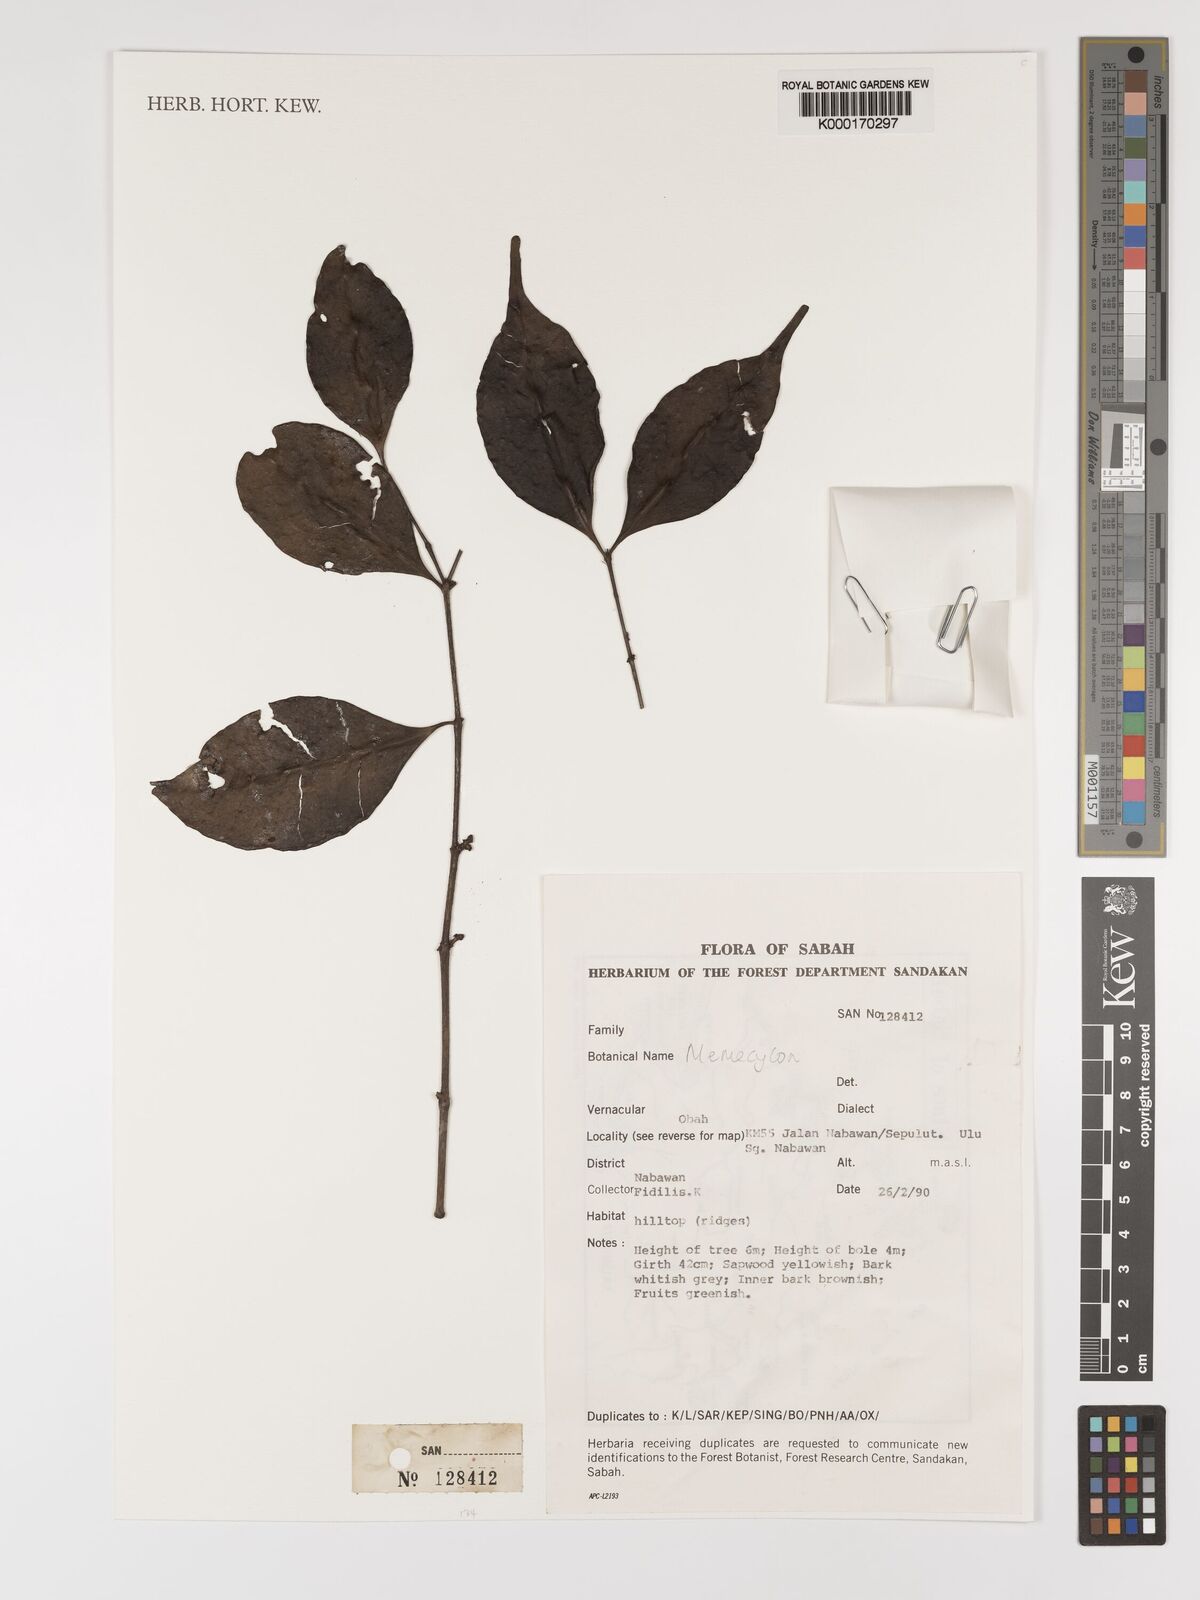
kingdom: Plantae
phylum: Tracheophyta
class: Magnoliopsida
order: Myrtales
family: Melastomataceae
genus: Memecylon
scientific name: Memecylon
